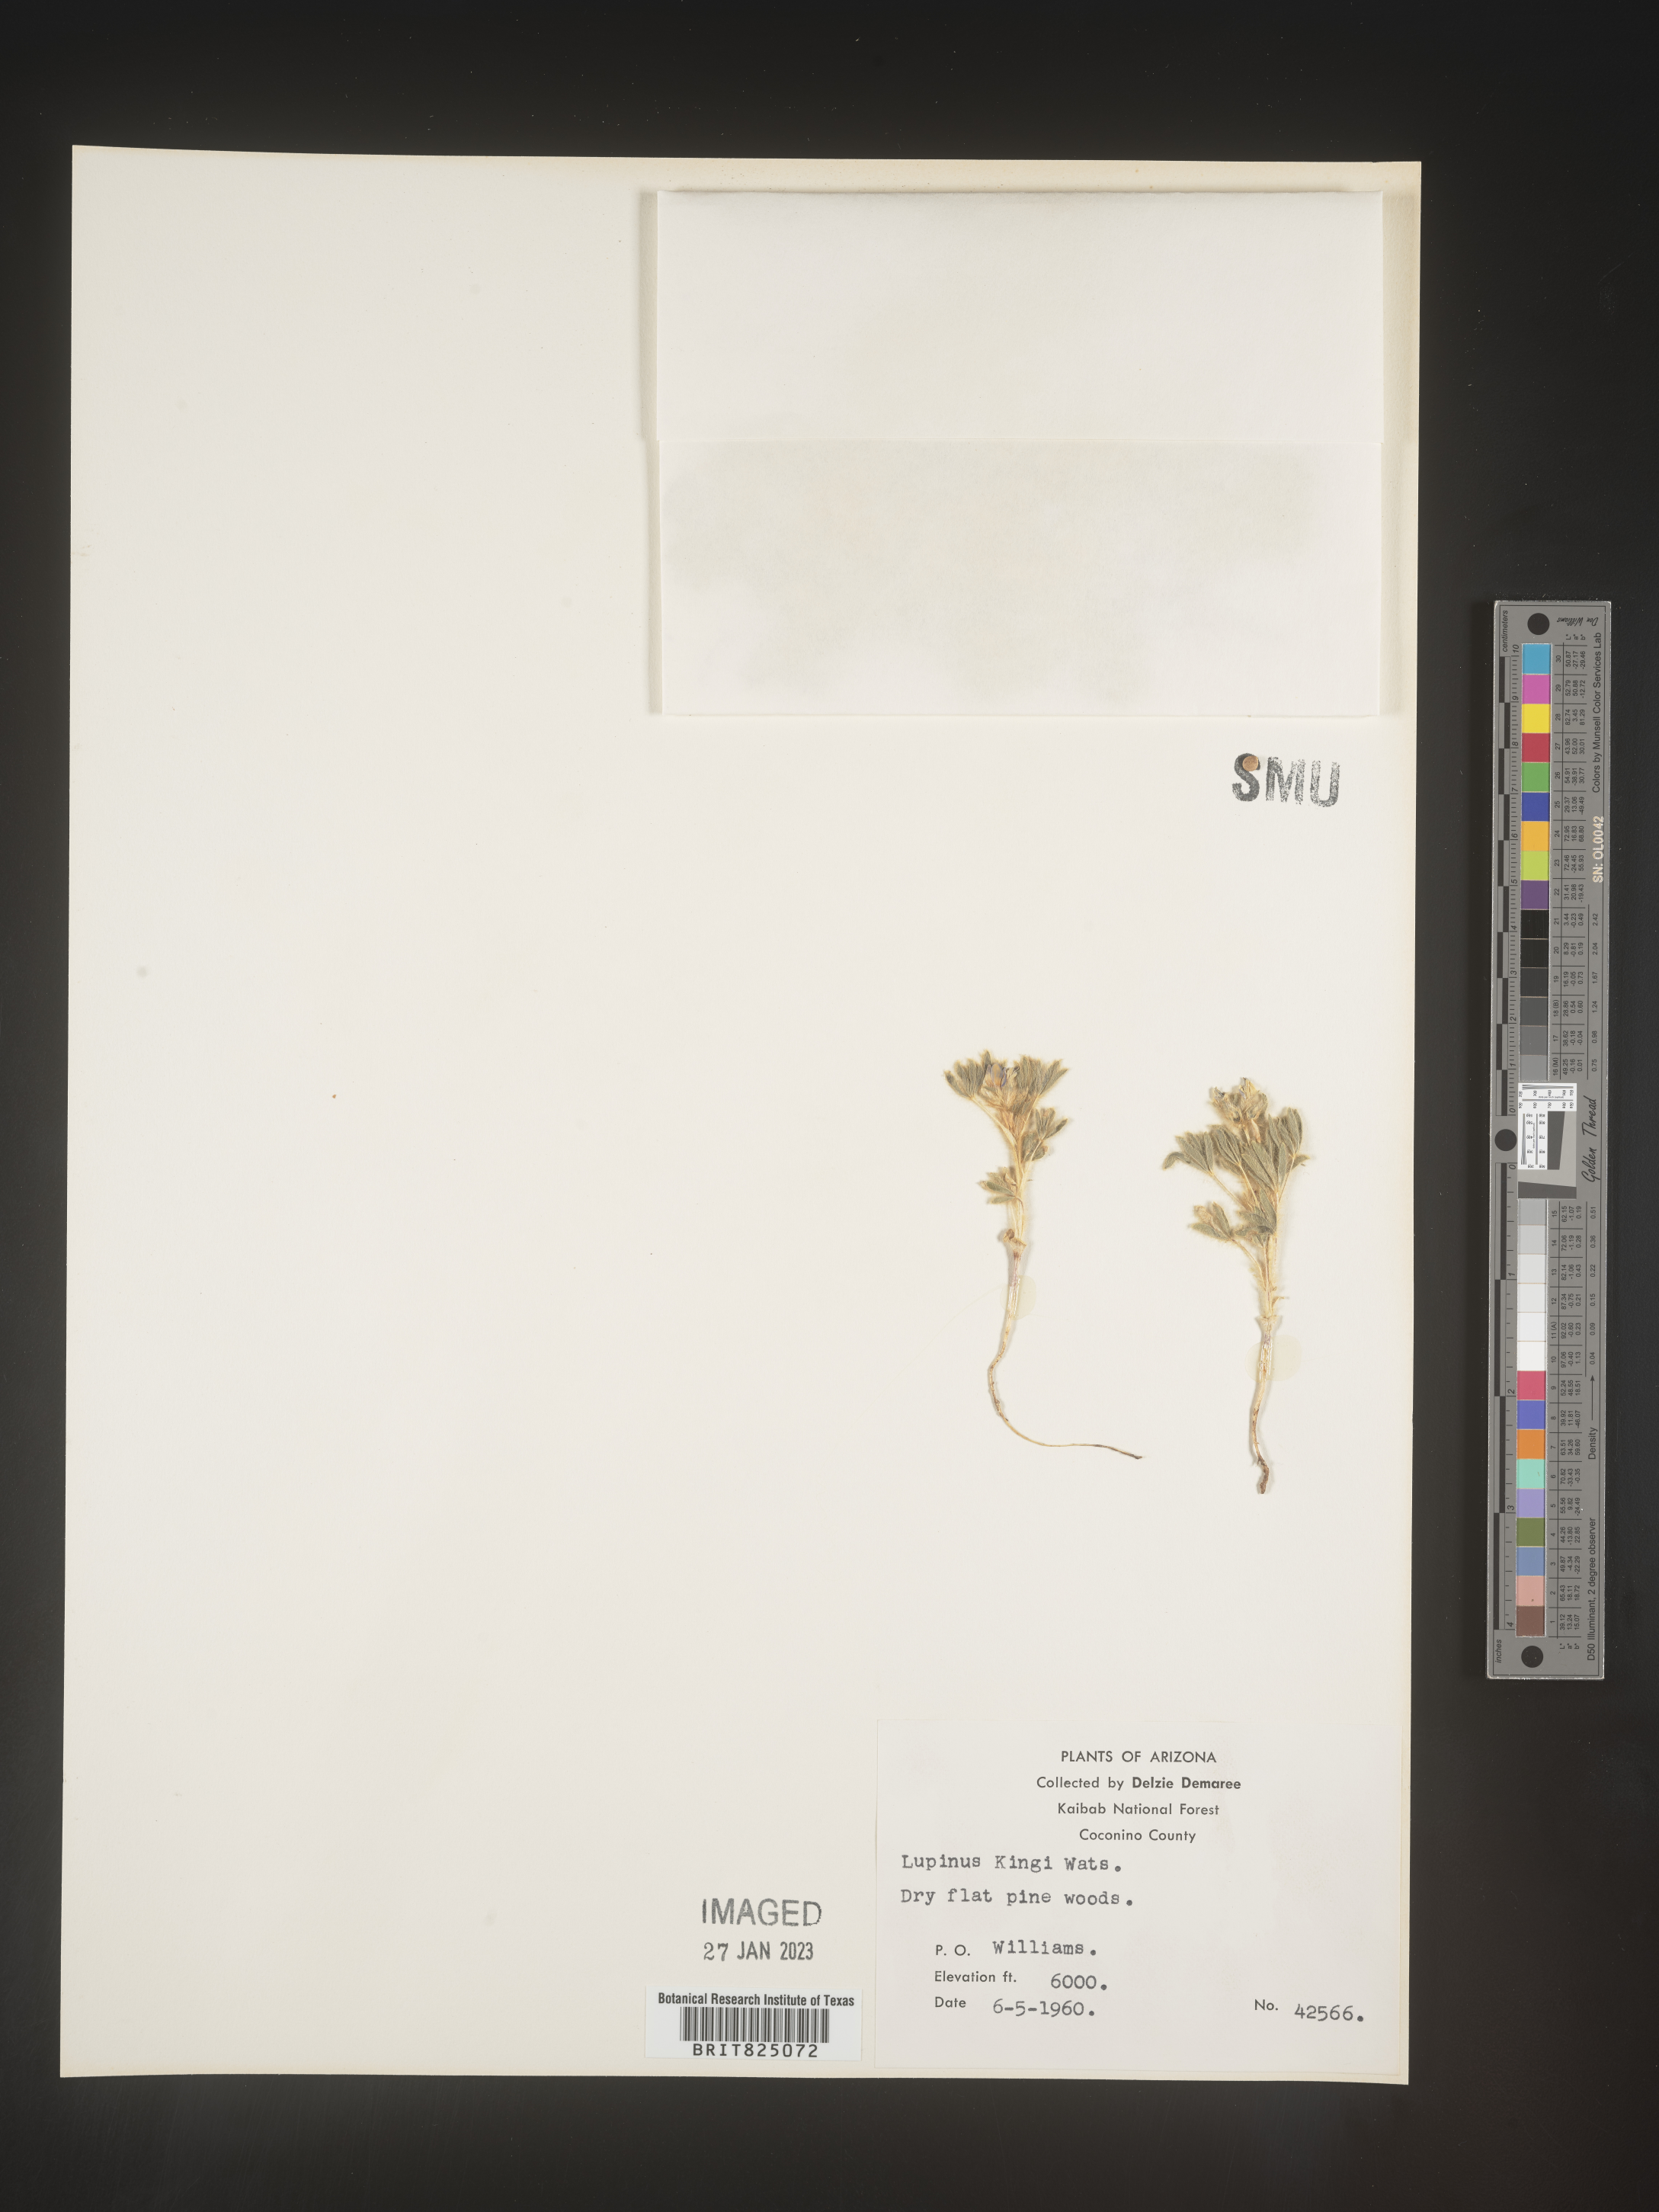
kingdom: Plantae
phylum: Tracheophyta
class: Magnoliopsida
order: Fabales
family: Fabaceae
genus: Lupinus
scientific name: Lupinus
